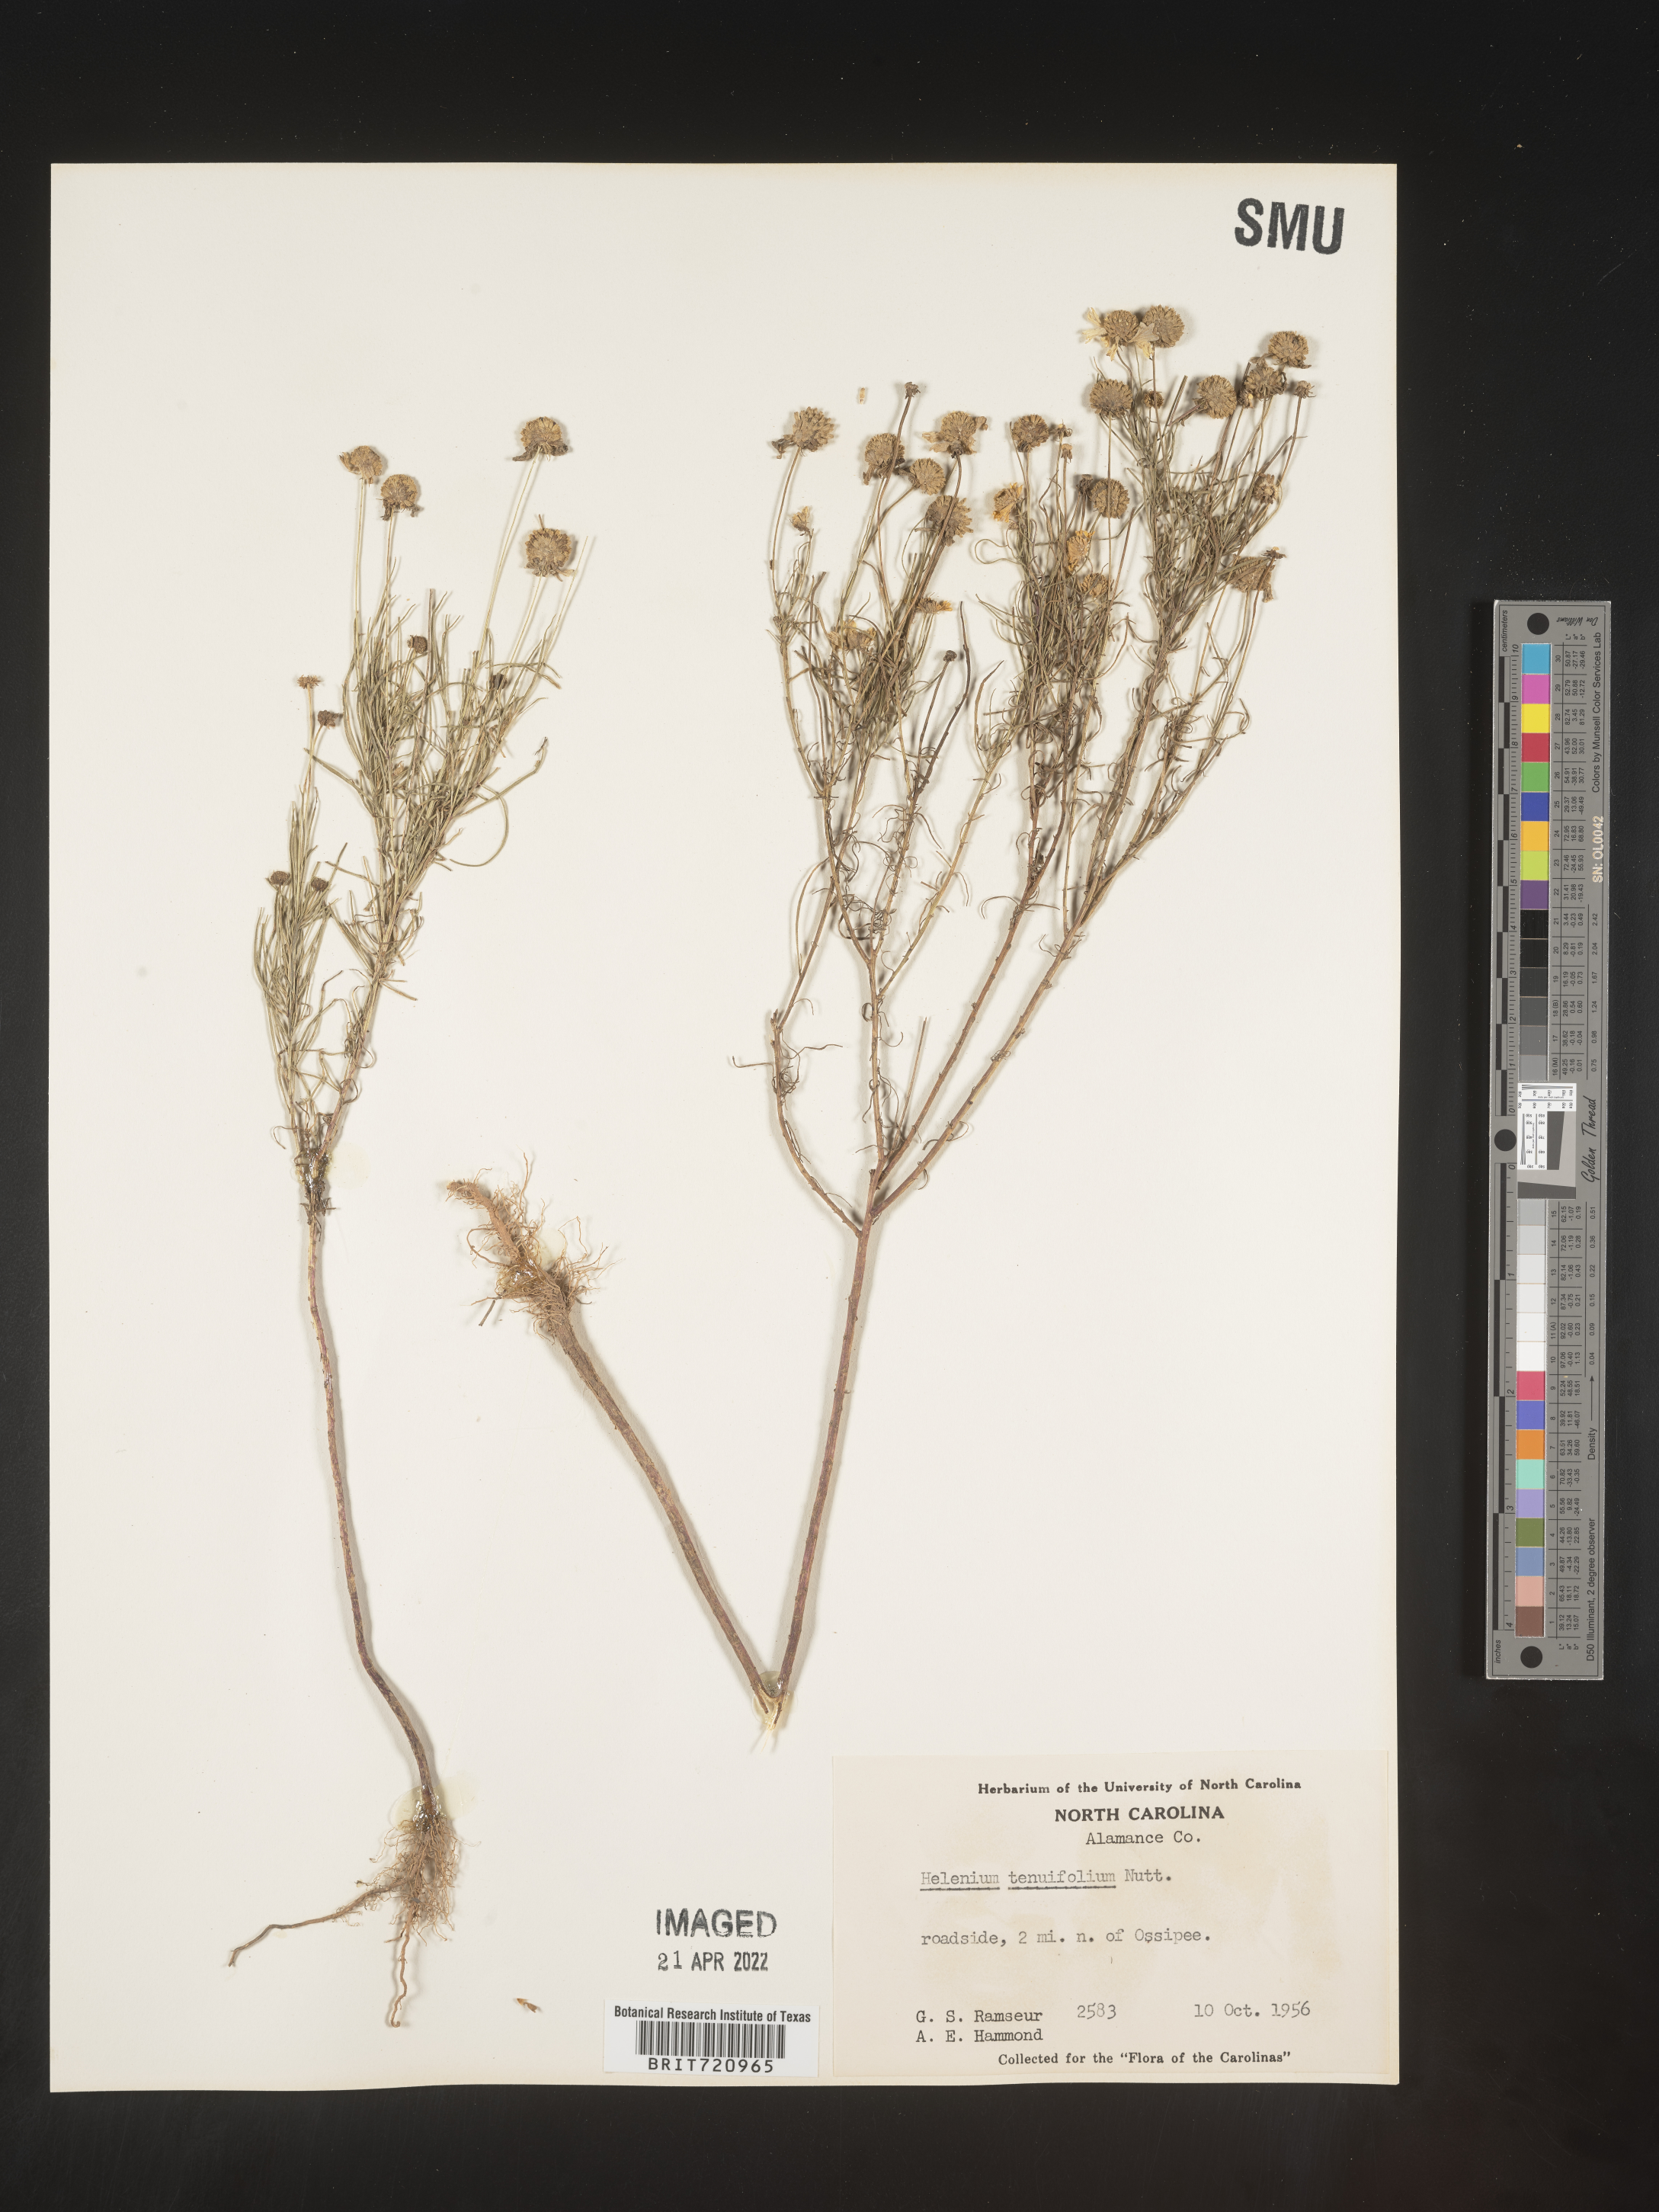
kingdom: Plantae
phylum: Tracheophyta
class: Magnoliopsida
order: Asterales
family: Asteraceae
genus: Helenium
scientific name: Helenium amarum
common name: Bitter sneezeweed
